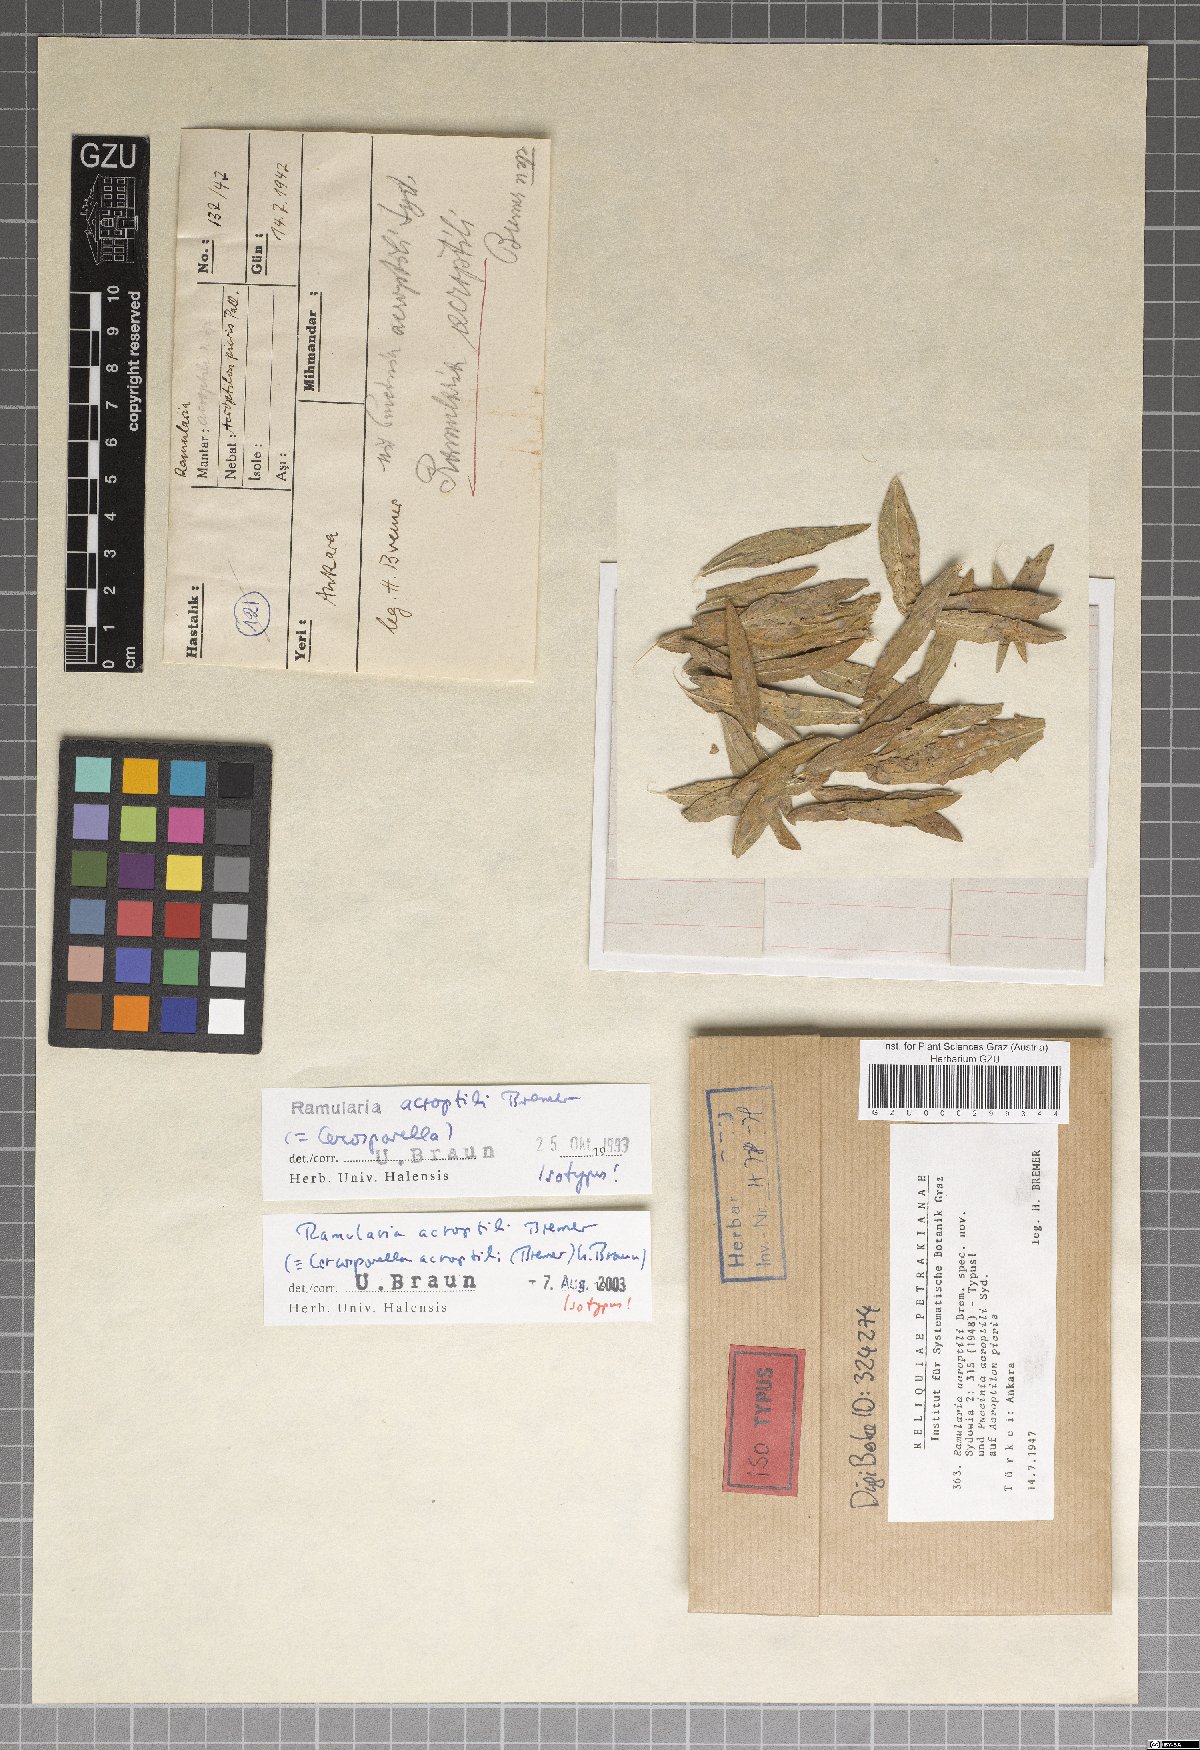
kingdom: Fungi
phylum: Ascomycota
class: Dothideomycetes
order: Mycosphaerellales
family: Mycosphaerellaceae
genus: Cercosporella
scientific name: Cercosporella acroptili
